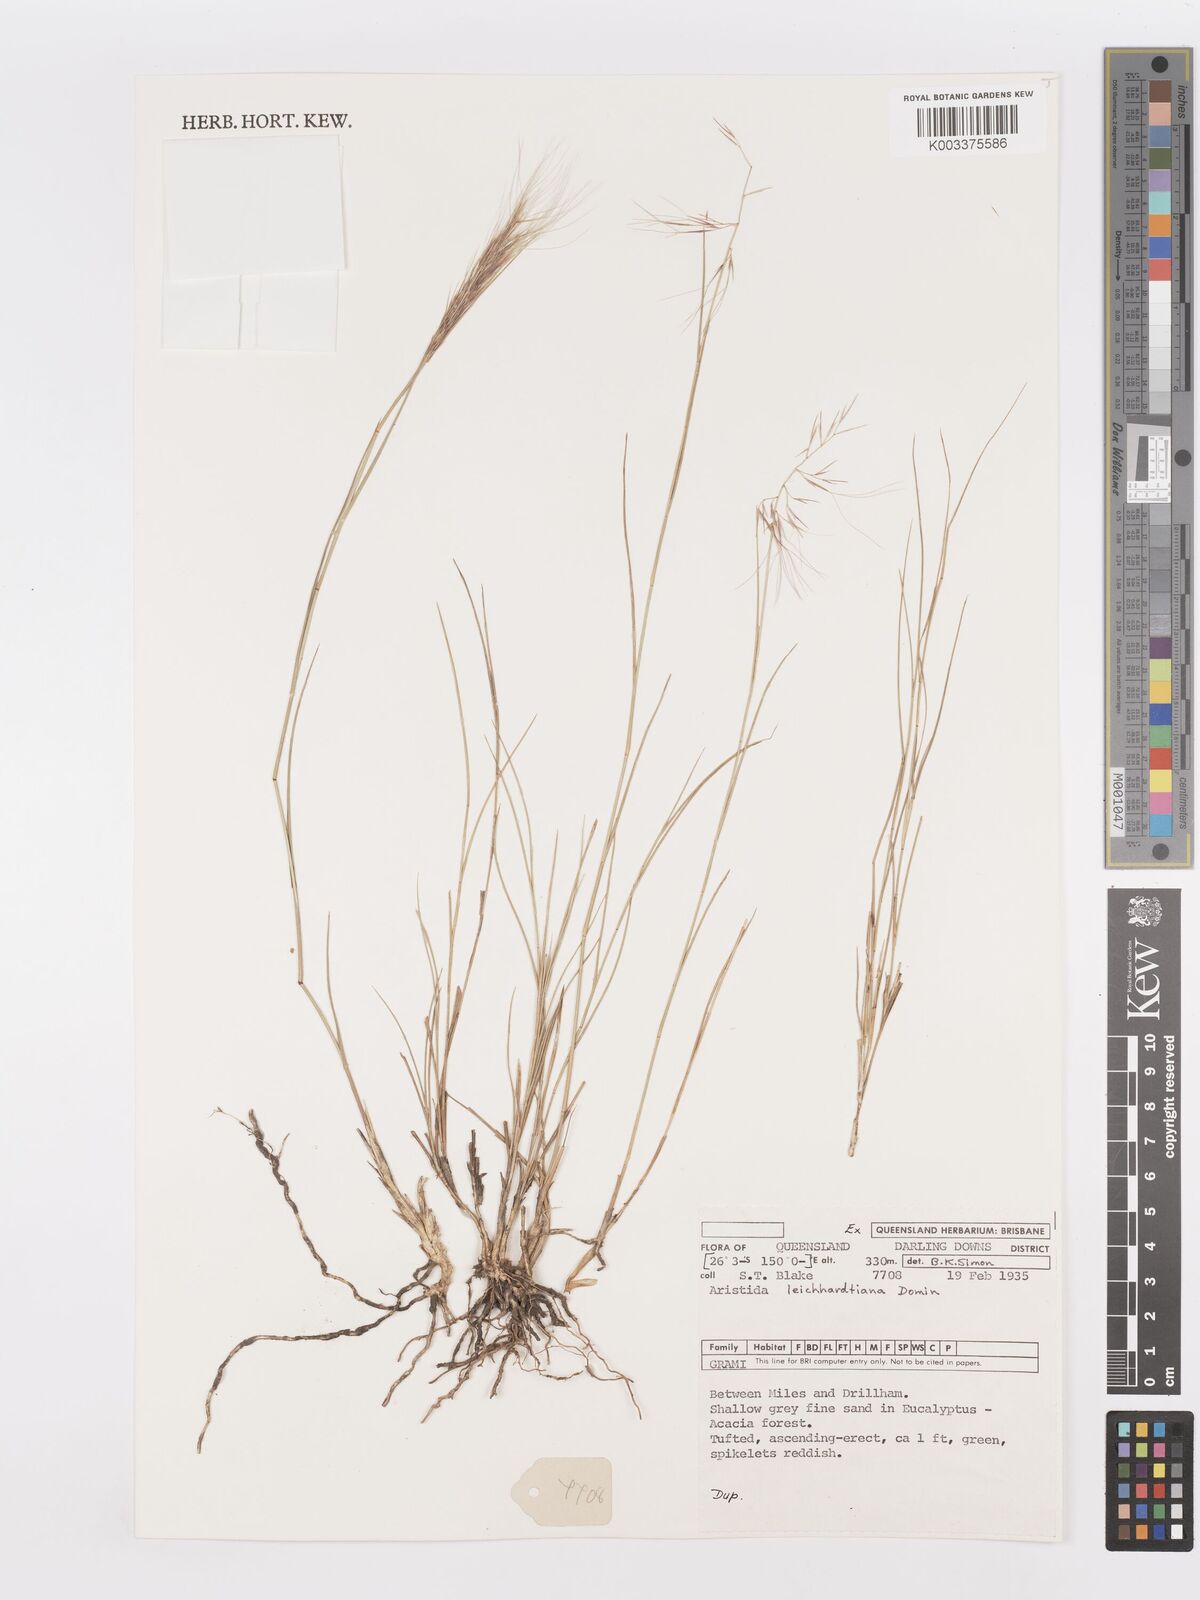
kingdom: Plantae
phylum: Tracheophyta
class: Liliopsida
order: Poales
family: Poaceae
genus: Aristida
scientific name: Aristida leichhardtiana
